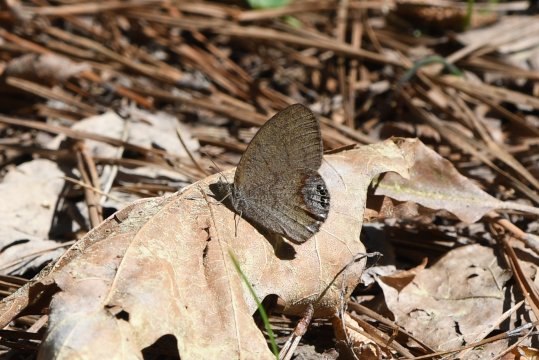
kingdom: Animalia
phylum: Arthropoda
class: Insecta
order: Lepidoptera
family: Nymphalidae
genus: Euptychia
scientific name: Euptychia cornelius
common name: Gemmed Satyr
